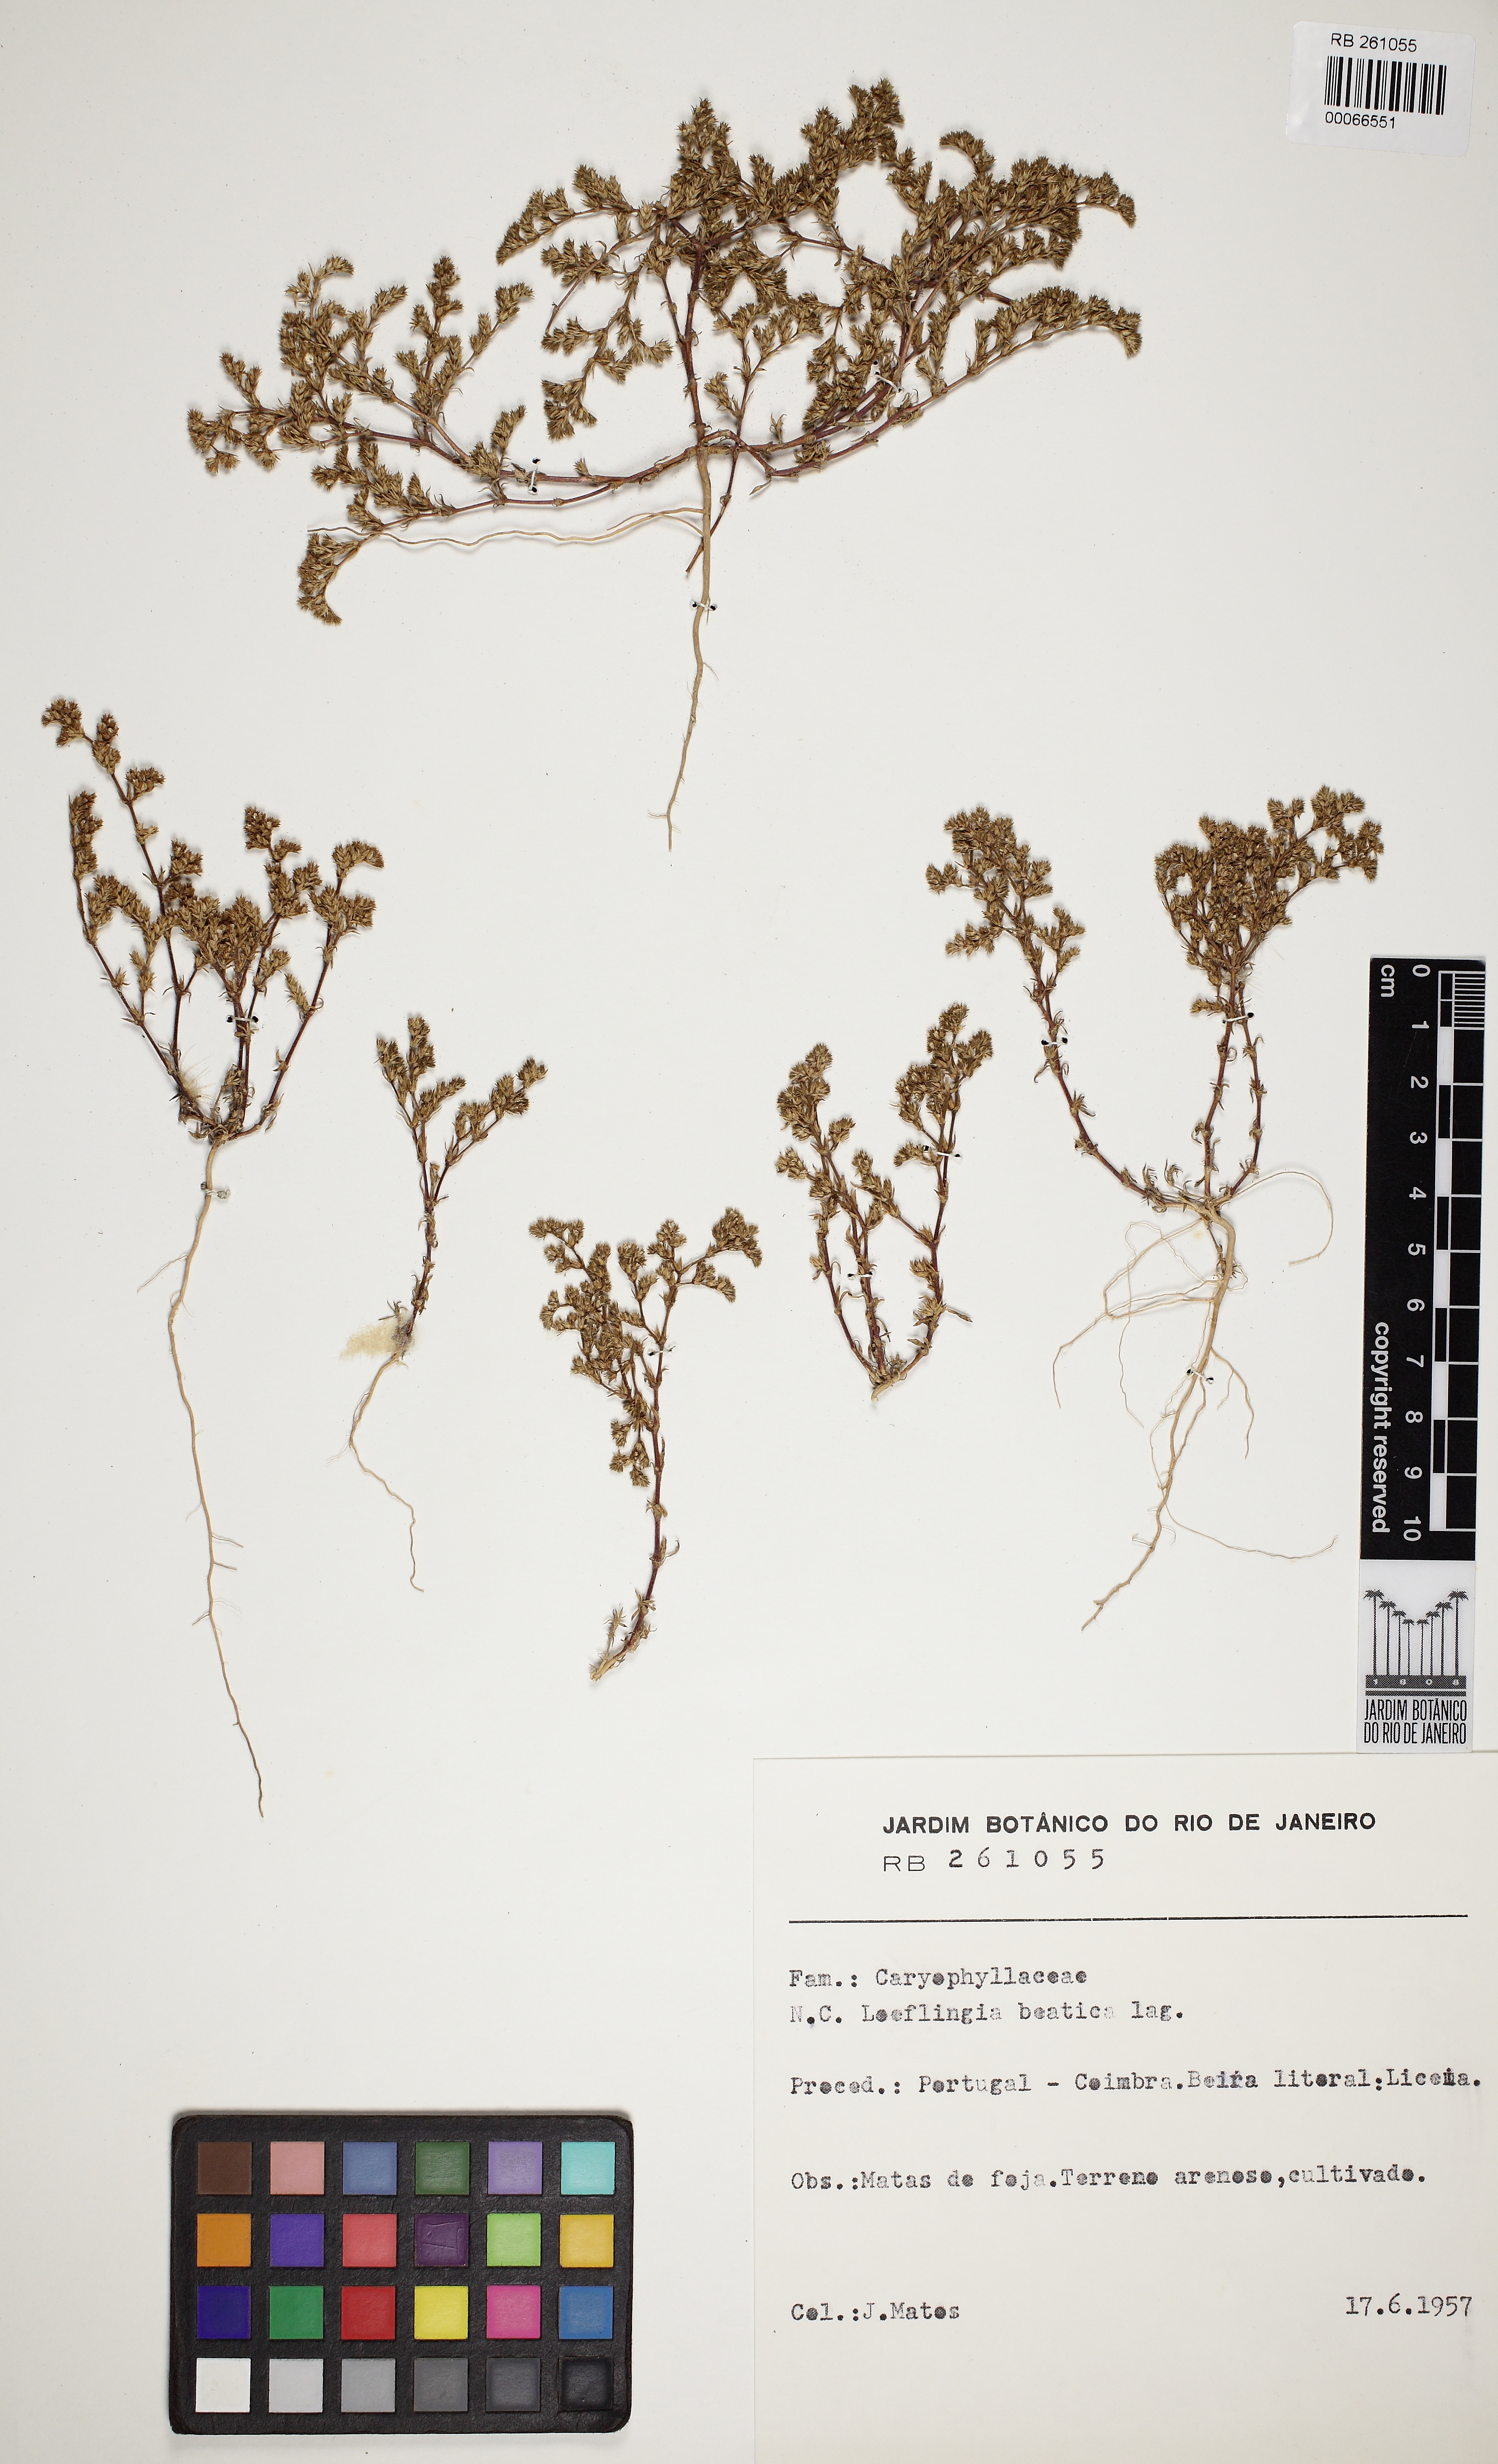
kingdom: Plantae
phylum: Tracheophyta
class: Magnoliopsida
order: Caryophyllales
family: Caryophyllaceae
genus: Loeflingia
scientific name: Loeflingia baetica
